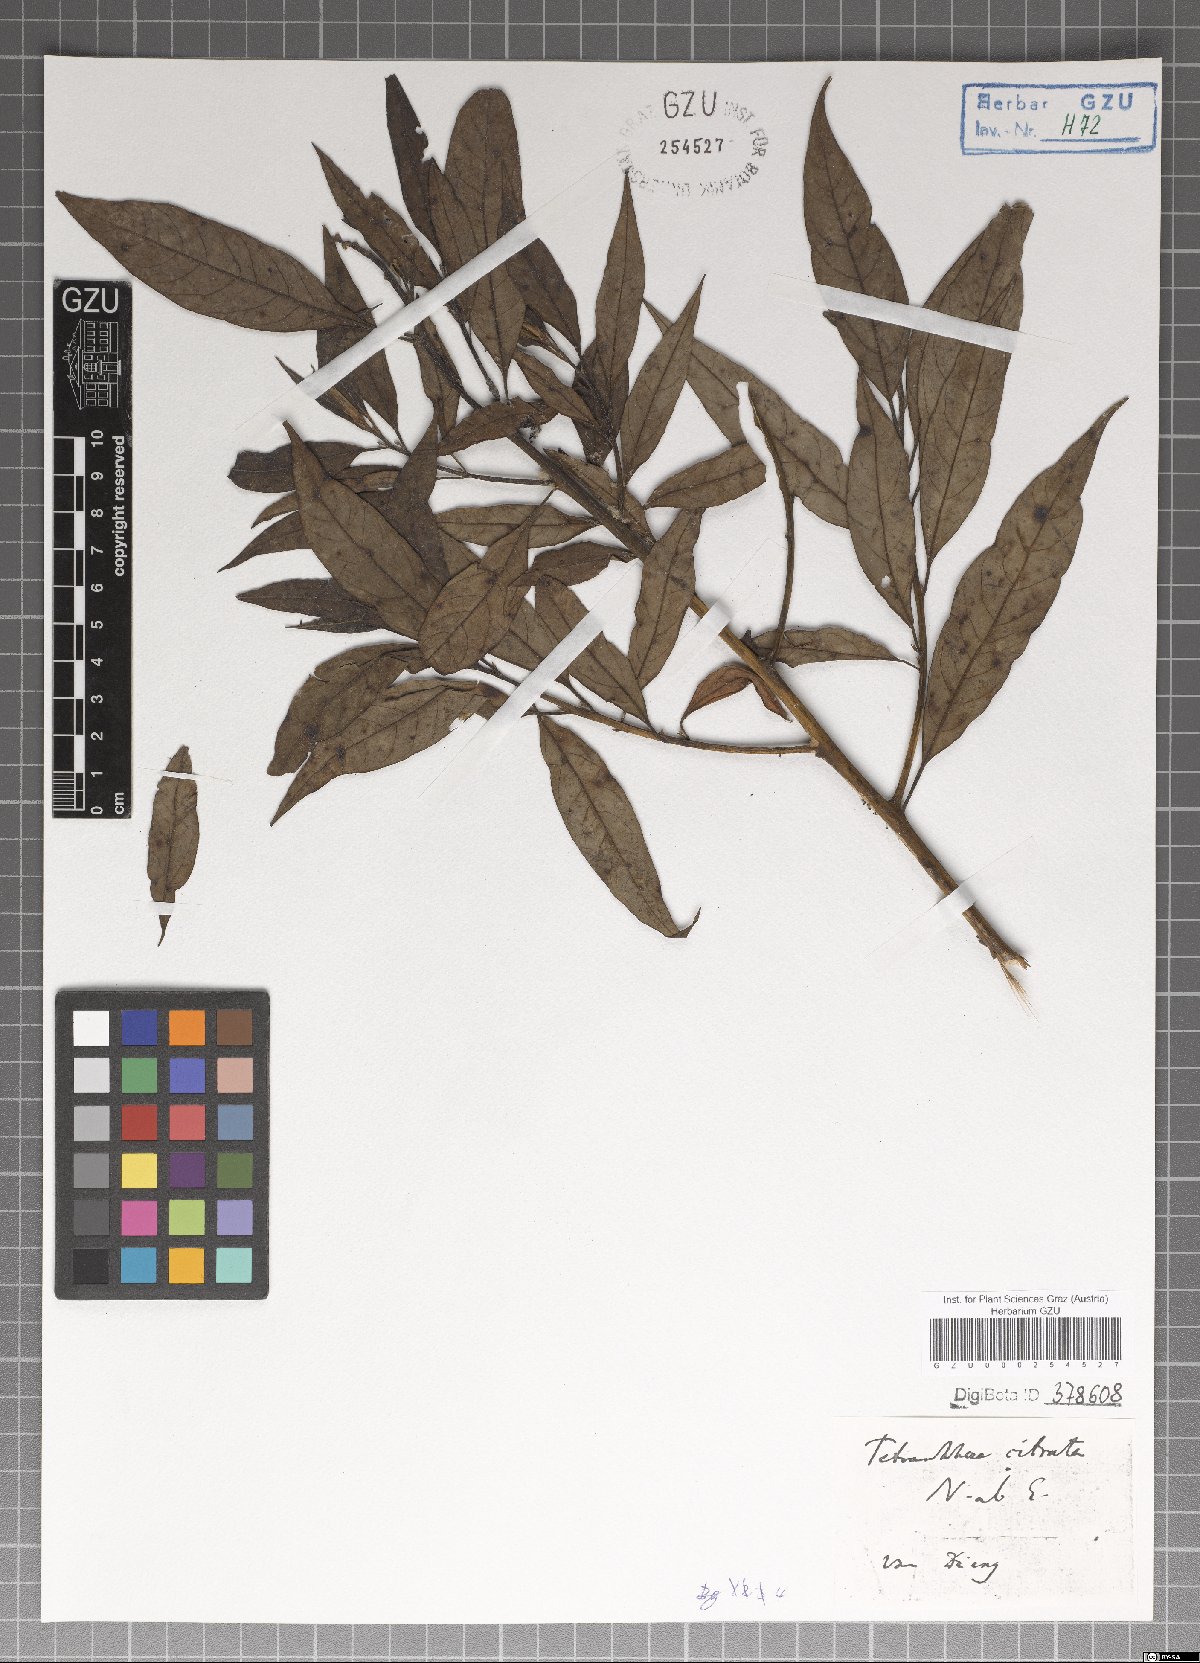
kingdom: Plantae
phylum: Tracheophyta
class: Magnoliopsida
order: Laurales
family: Lauraceae
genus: Litsea
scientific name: Litsea cubeba
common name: Mountain-pepper
